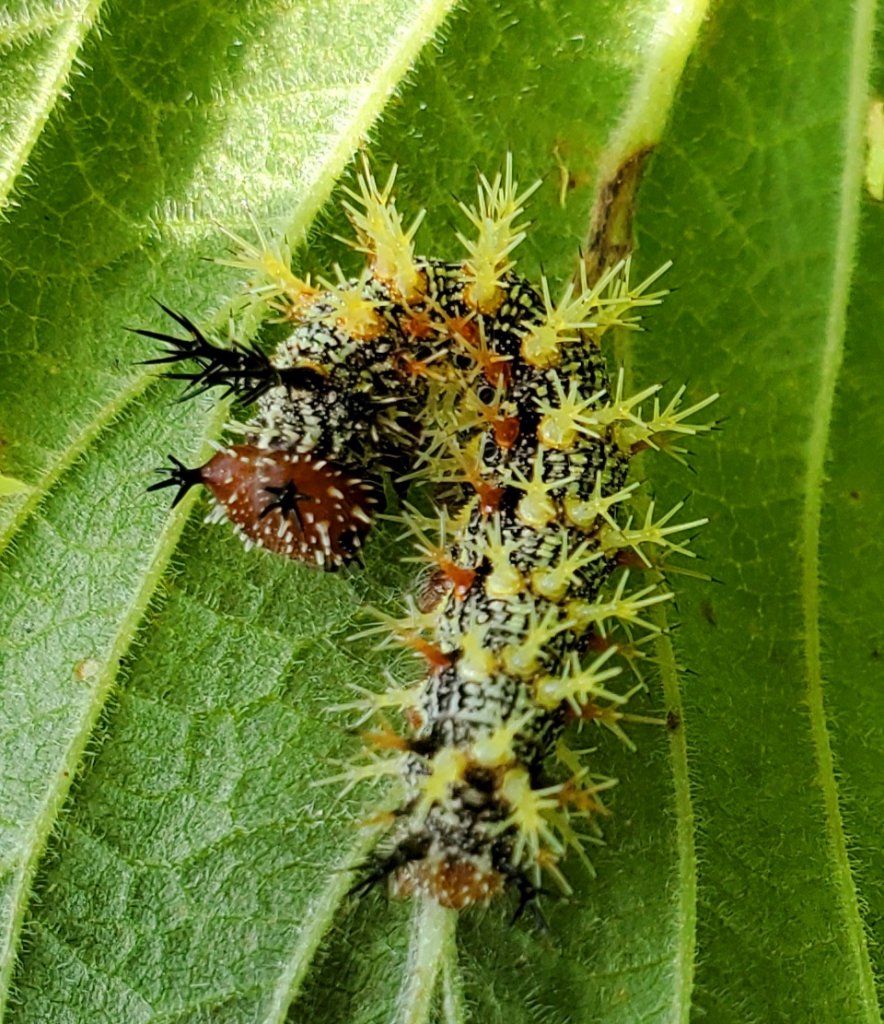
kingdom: Animalia
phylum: Arthropoda
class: Insecta
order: Lepidoptera
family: Nymphalidae
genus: Polygonia
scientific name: Polygonia interrogationis
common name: Question Mark
